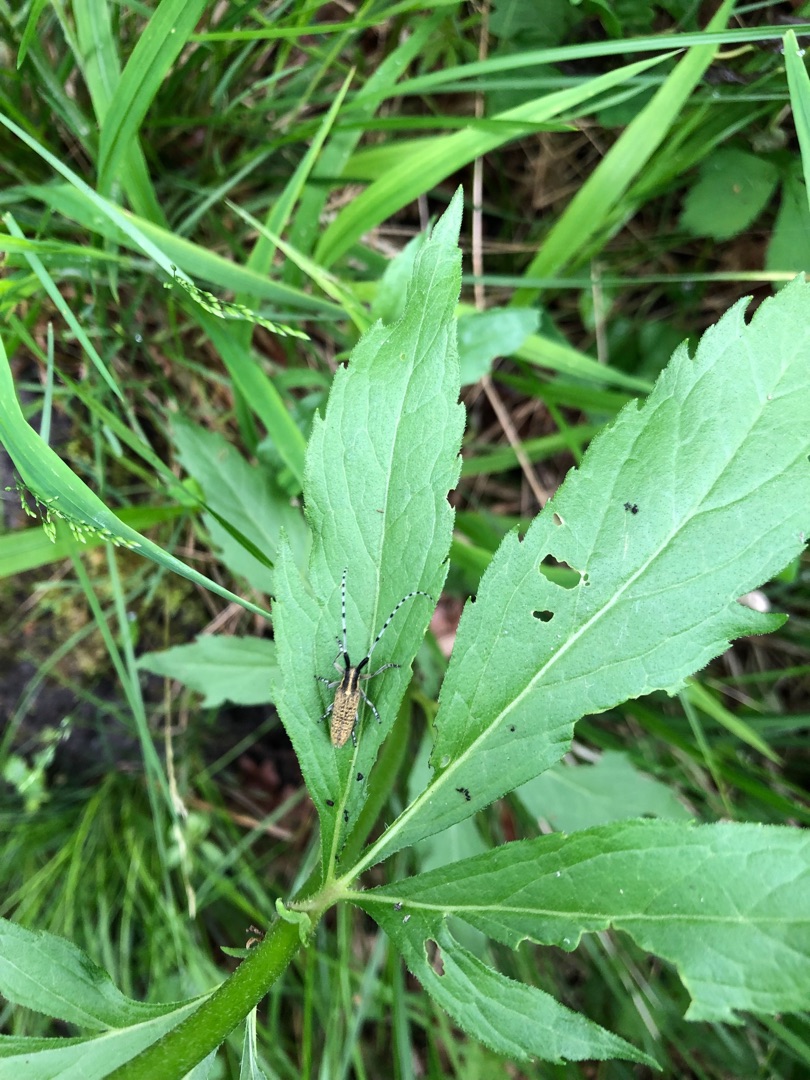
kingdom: Plantae
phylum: Tracheophyta
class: Magnoliopsida
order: Brassicales
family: Brassicaceae
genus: Cardamine
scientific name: Cardamine bulbifera
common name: Tandrod
